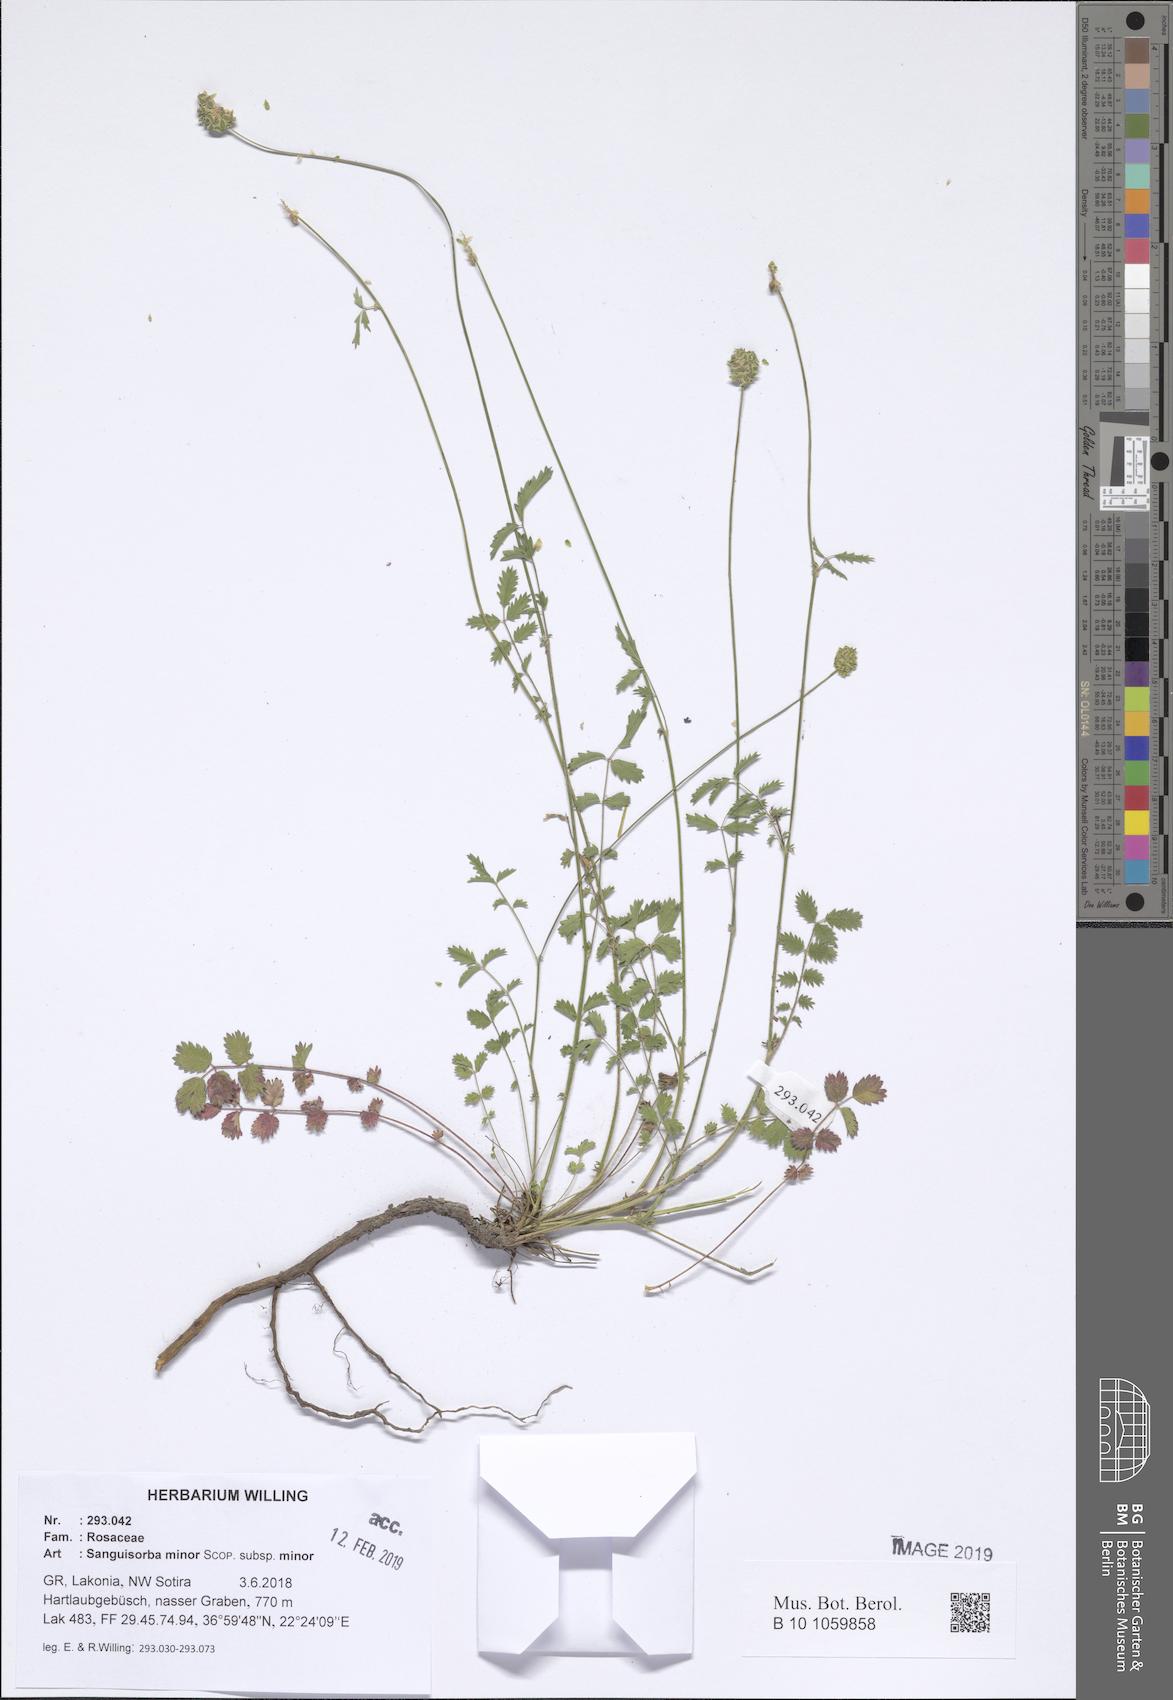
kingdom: Plantae
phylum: Tracheophyta
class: Magnoliopsida
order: Rosales
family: Rosaceae
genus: Poterium
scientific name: Poterium sanguisorba
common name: Salad burnet
